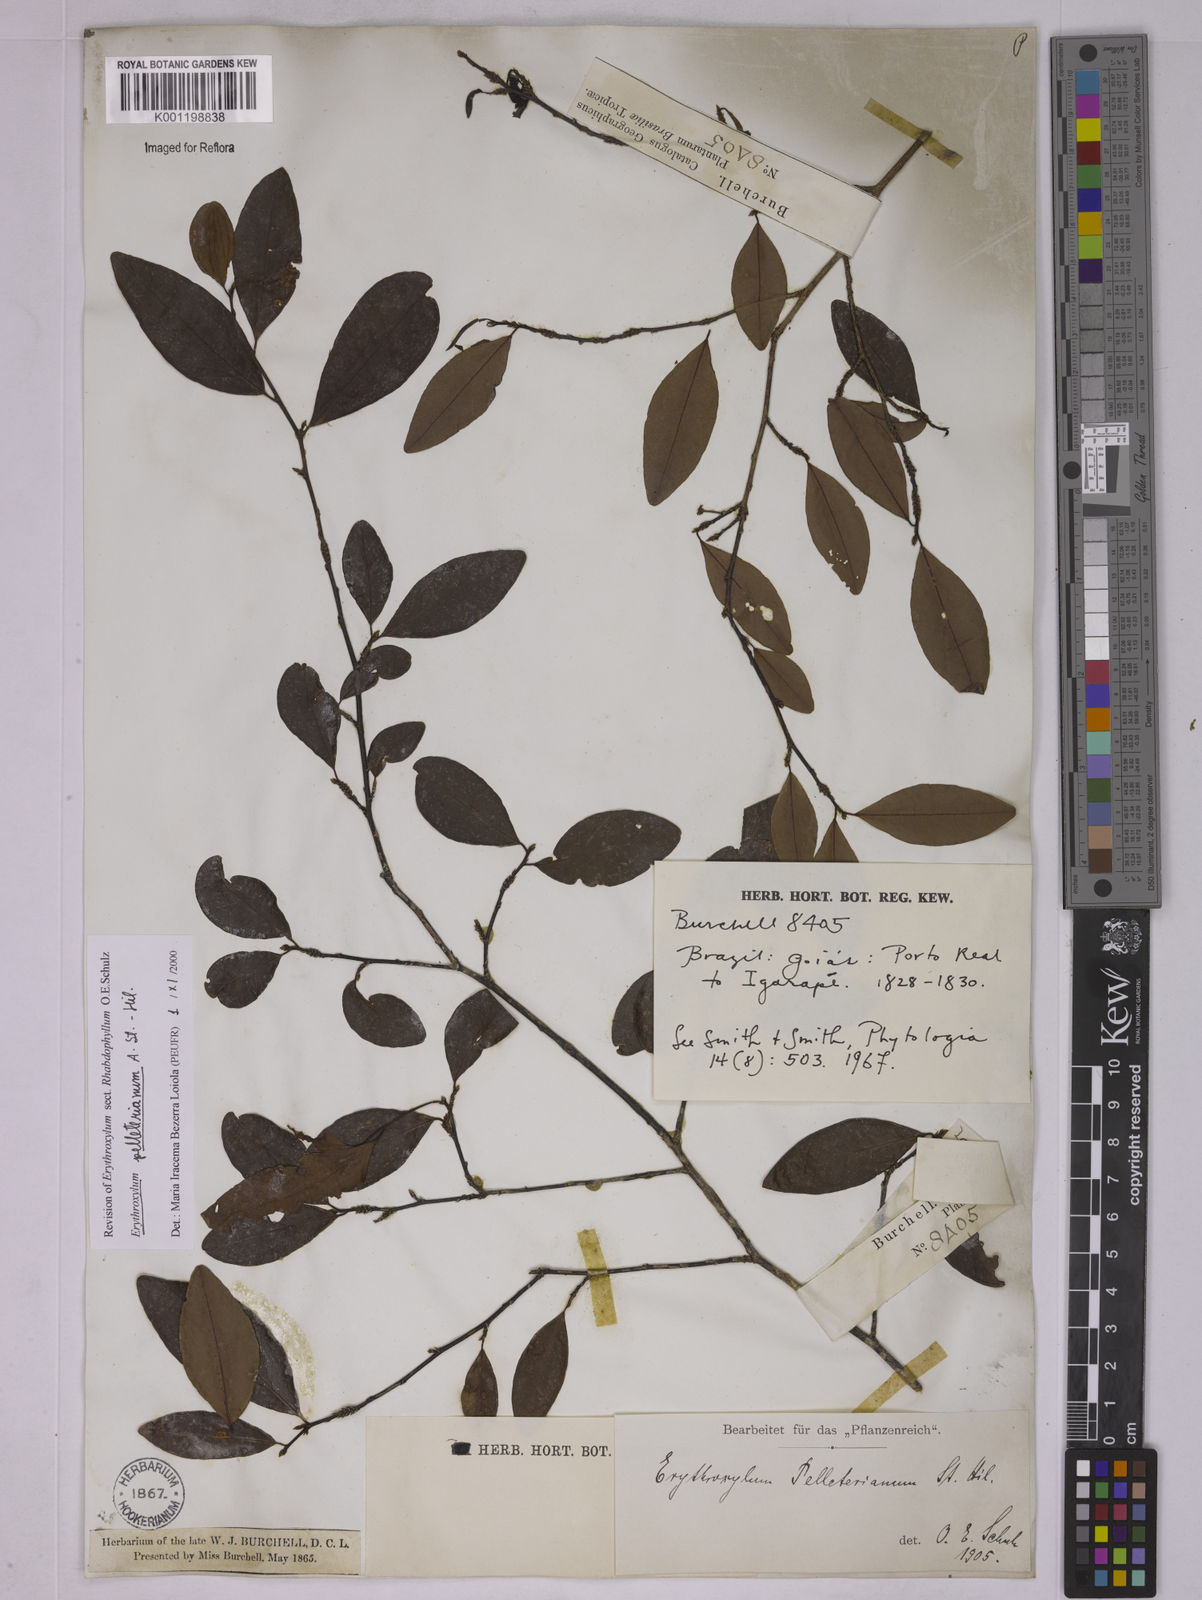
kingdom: Plantae
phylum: Tracheophyta
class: Magnoliopsida
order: Malpighiales
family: Erythroxylaceae
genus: Erythroxylum
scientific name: Erythroxylum pelleterianum
